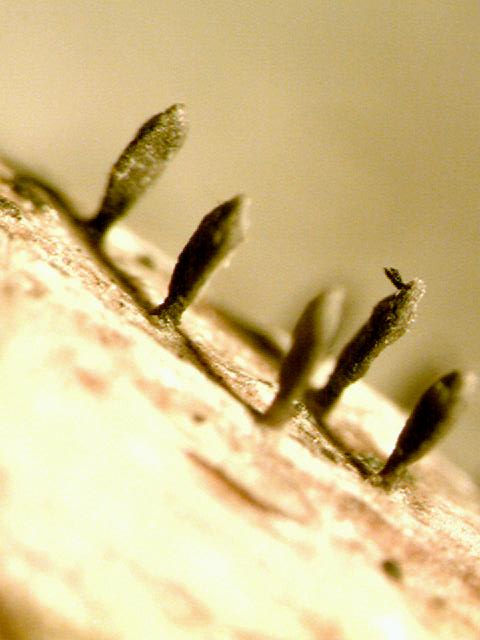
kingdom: Fungi
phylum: Ascomycota
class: Dothideomycetes
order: Acrospermales
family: Acrospermaceae
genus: Acrospermum
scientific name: Acrospermum compressum
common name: nælde-stængeltunge
